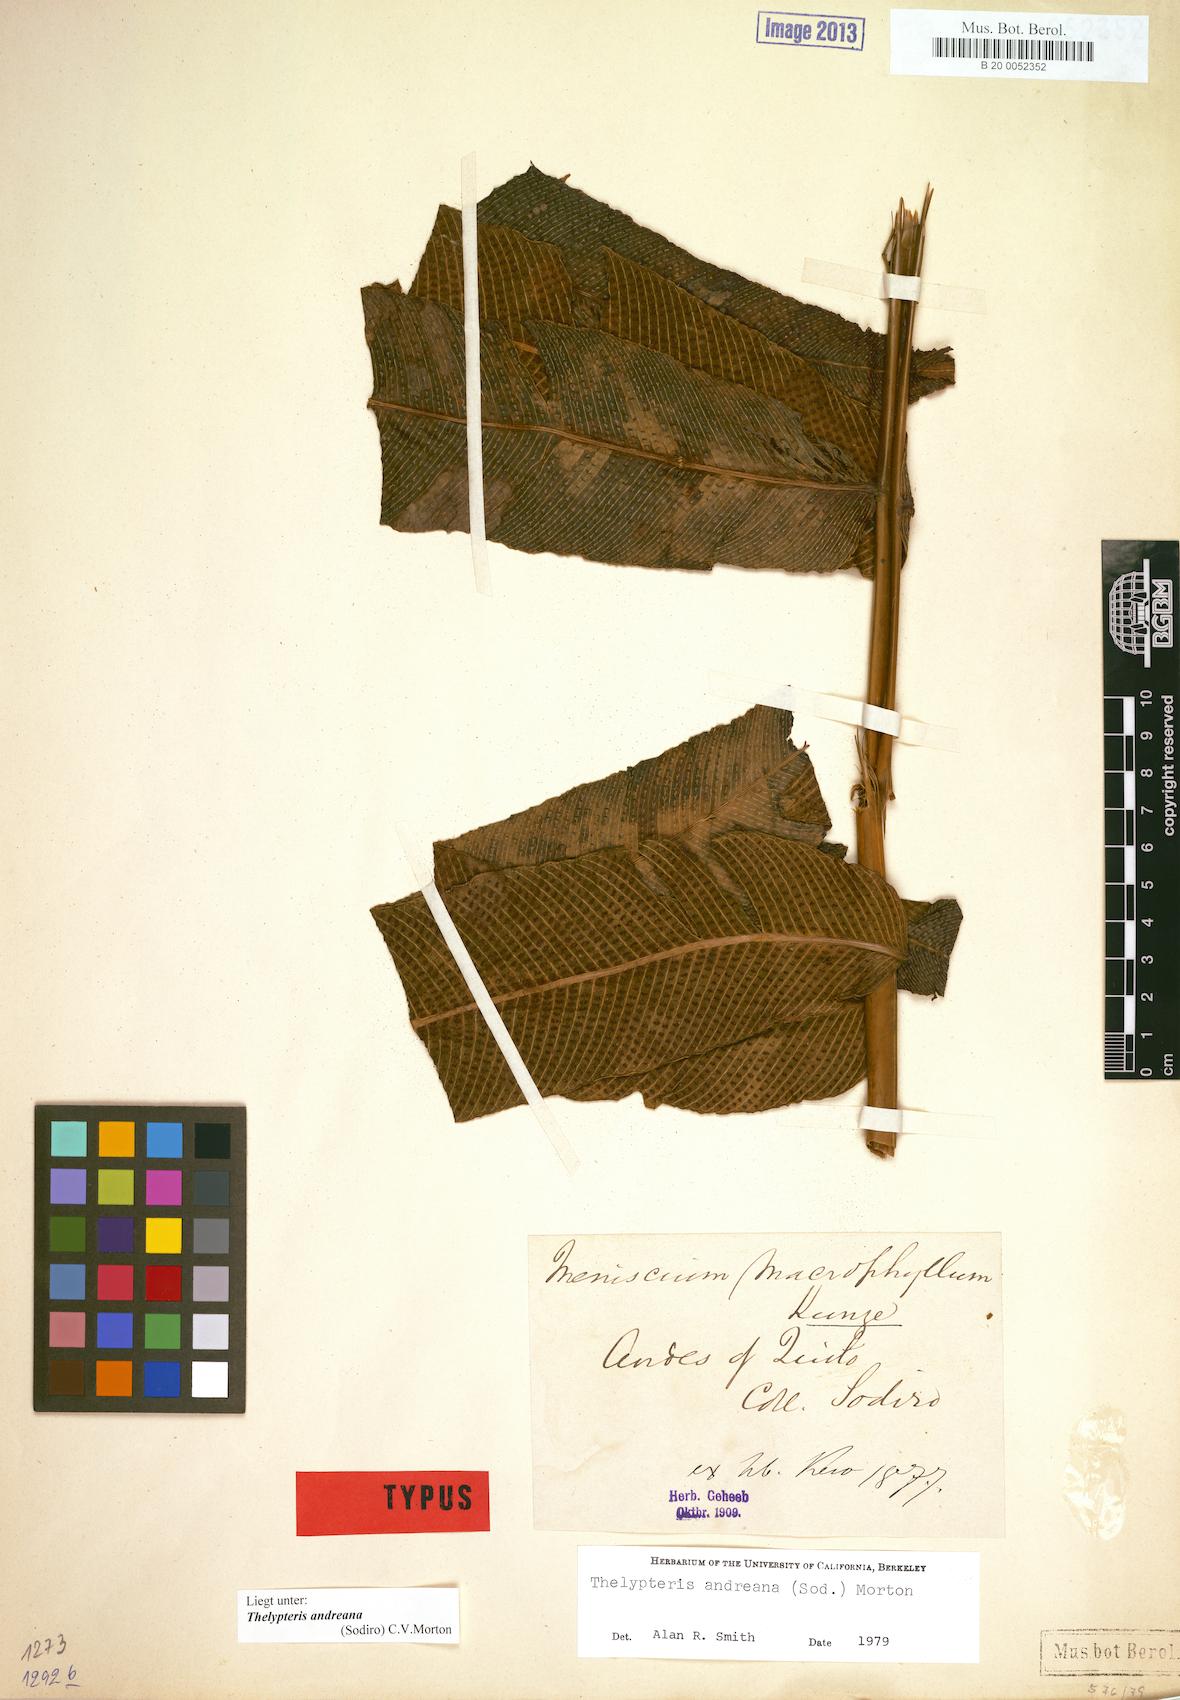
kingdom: Plantae
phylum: Tracheophyta
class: Polypodiopsida
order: Polypodiales
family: Thelypteridaceae
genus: Meniscium
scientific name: Meniscium andreanum
